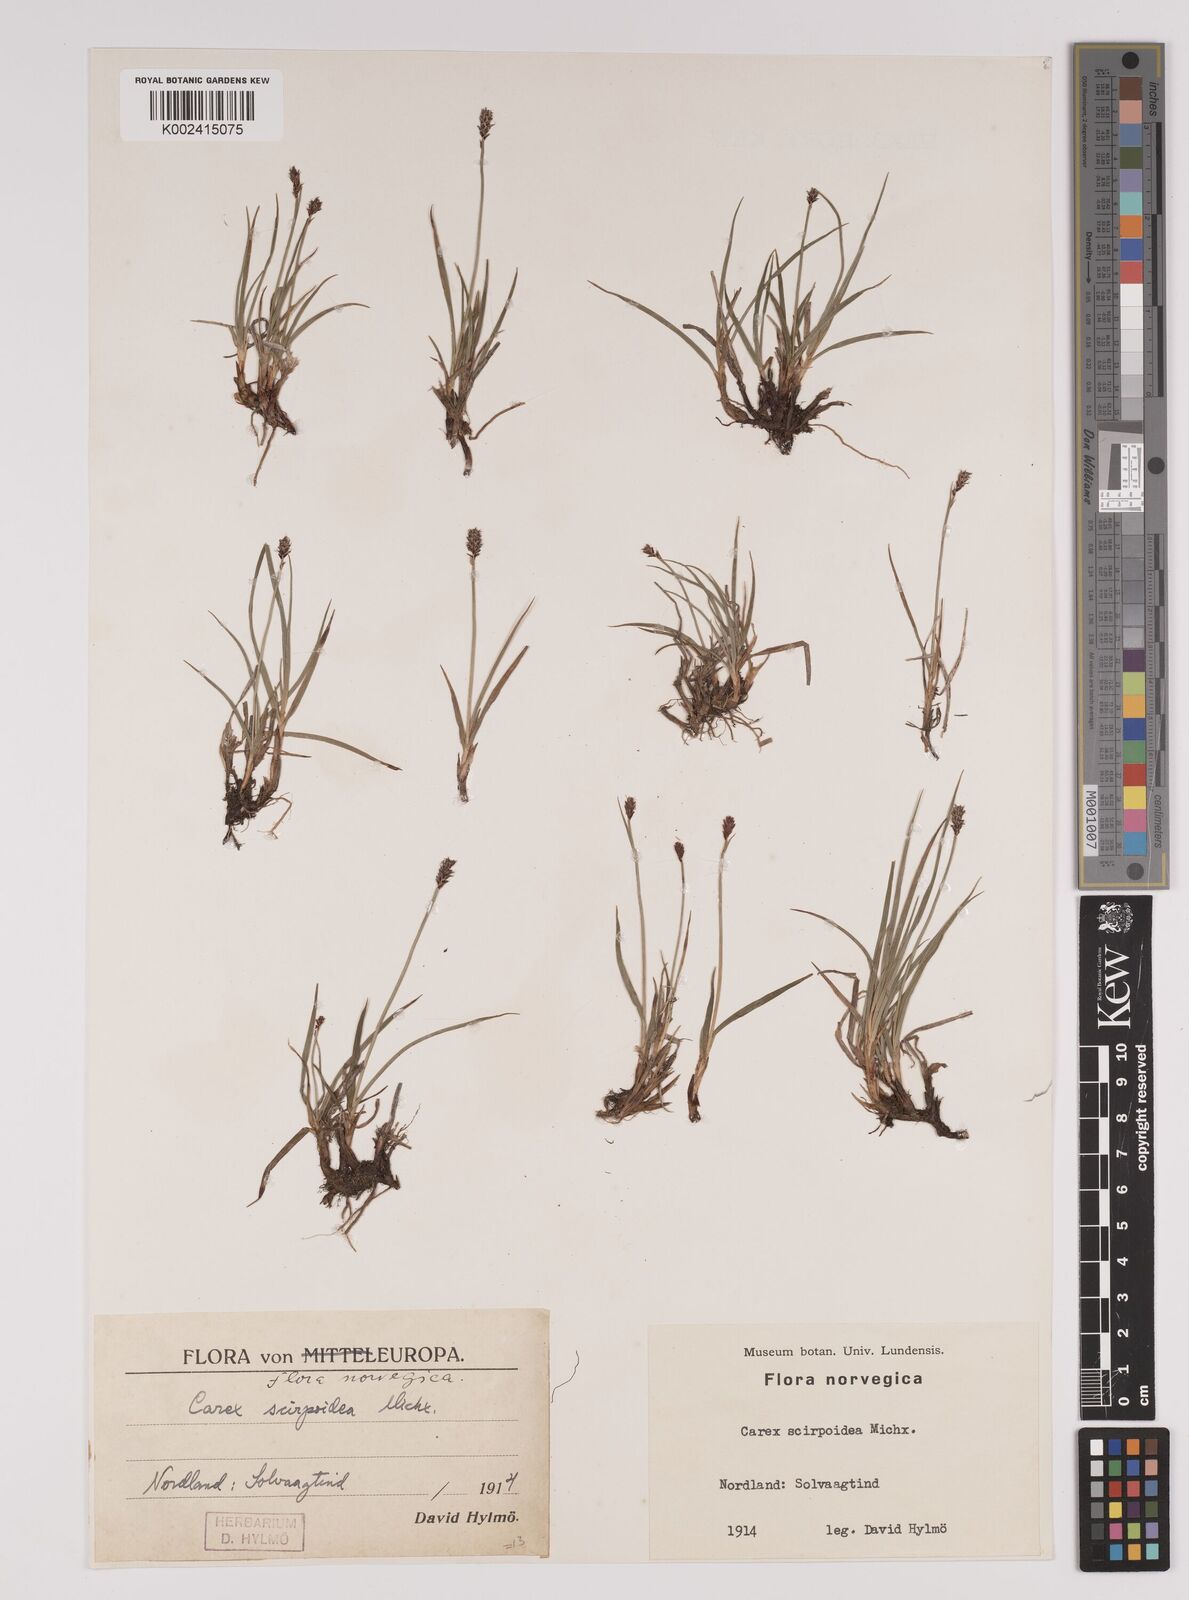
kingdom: Plantae
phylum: Tracheophyta
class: Liliopsida
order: Poales
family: Cyperaceae
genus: Carex
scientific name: Carex
